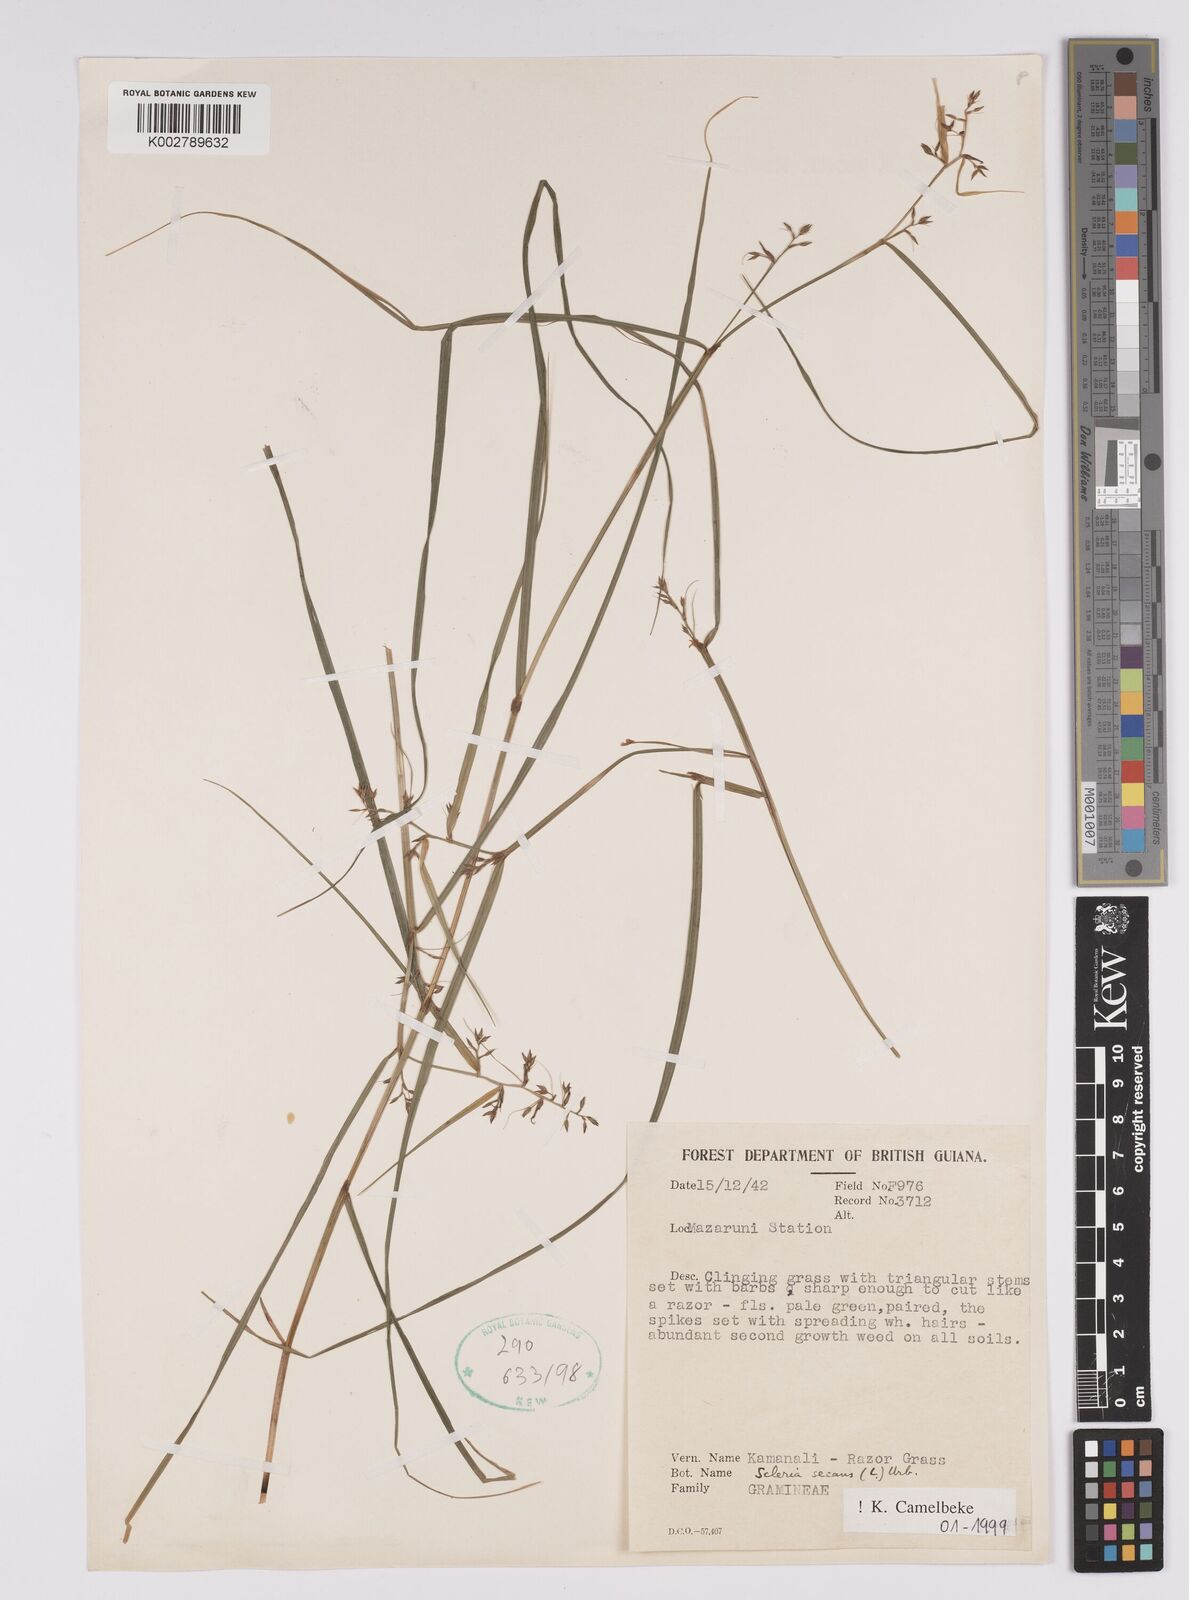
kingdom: Plantae
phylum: Tracheophyta
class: Liliopsida
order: Poales
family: Cyperaceae
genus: Scleria
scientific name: Scleria secans
